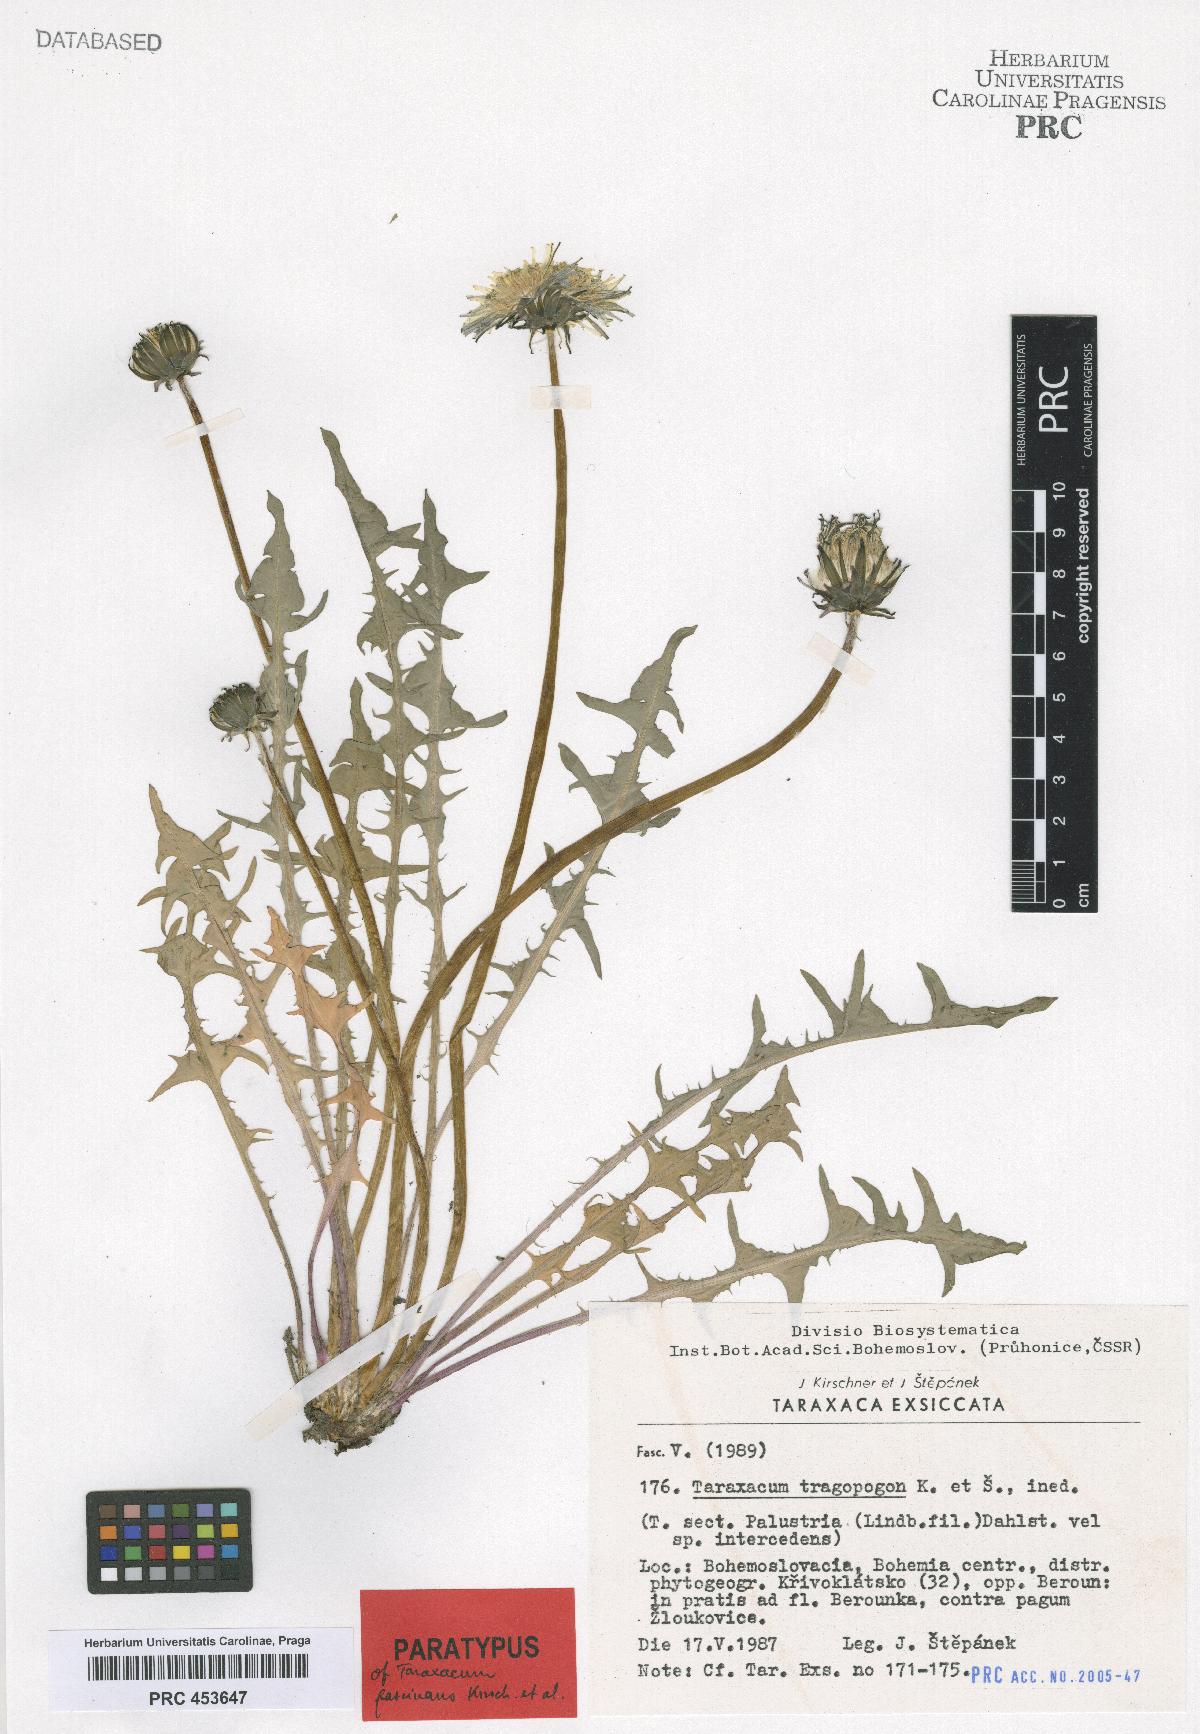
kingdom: Plantae
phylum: Tracheophyta
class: Magnoliopsida
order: Asterales
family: Asteraceae
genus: Taraxacum
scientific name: Taraxacum fascinans
